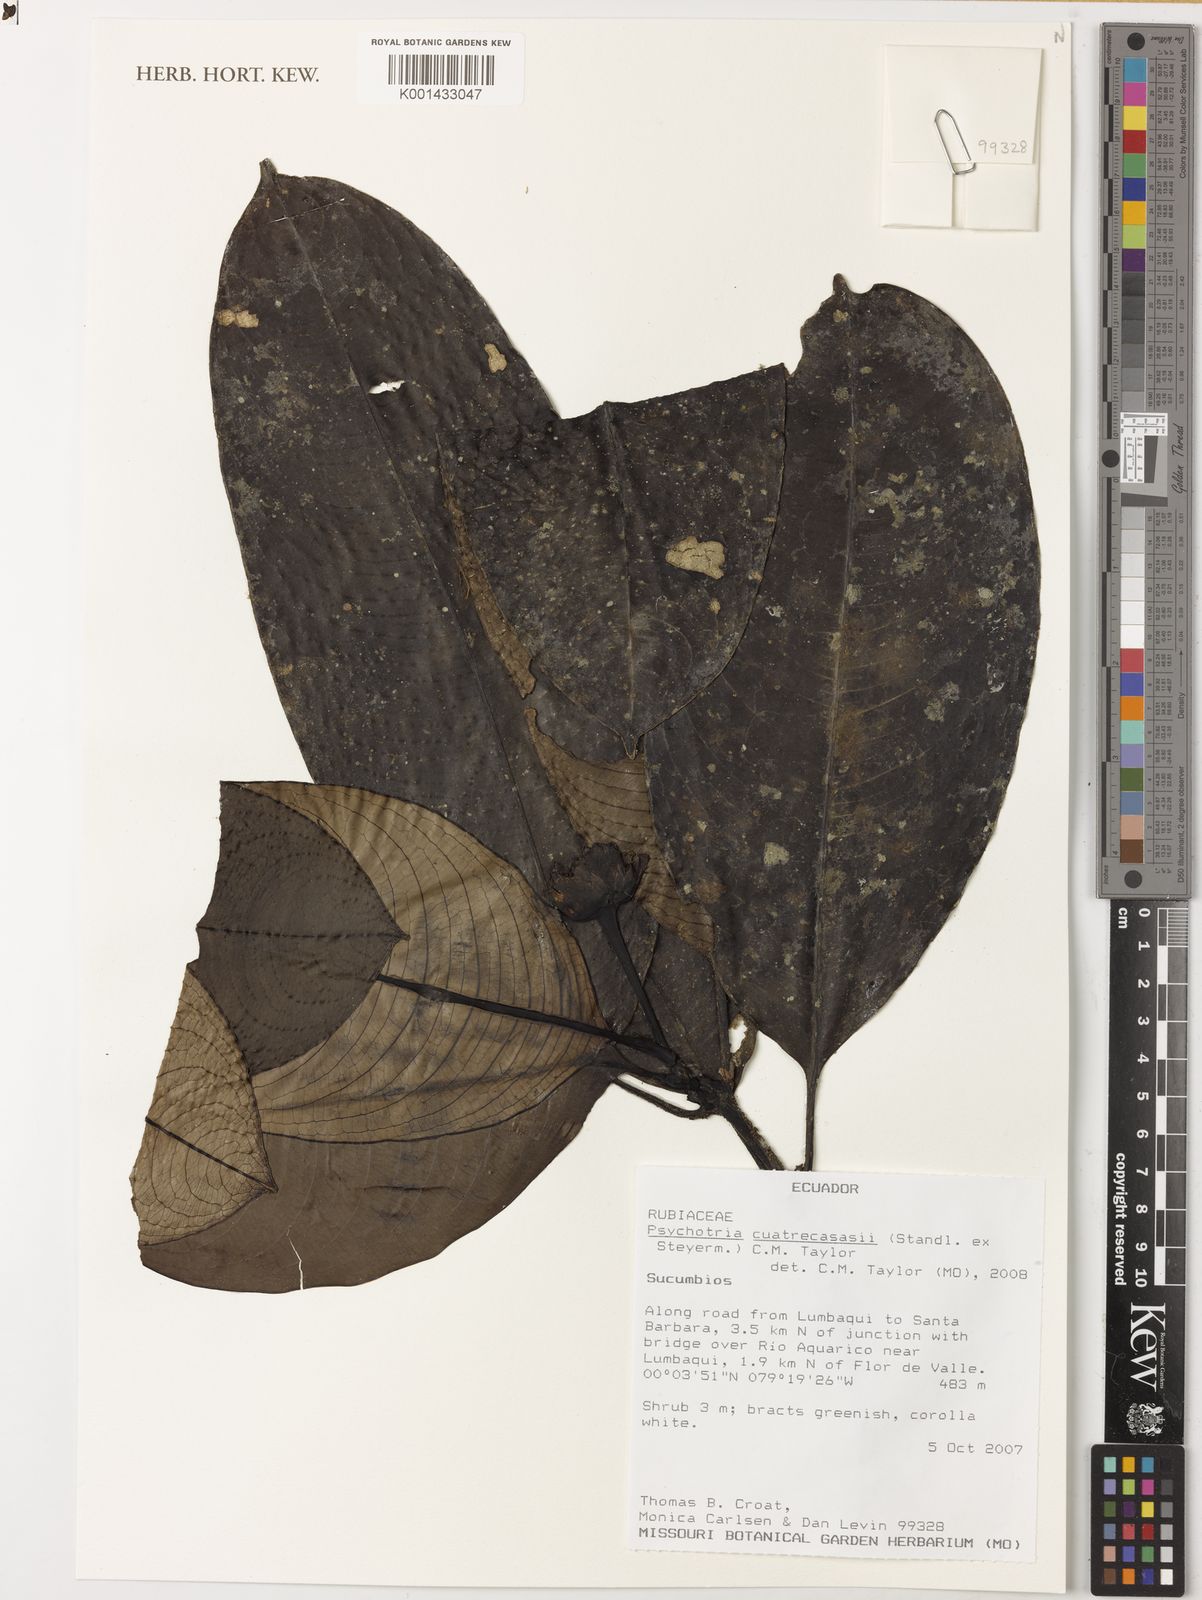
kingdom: Plantae
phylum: Tracheophyta
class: Magnoliopsida
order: Gentianales
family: Rubiaceae
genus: Palicourea
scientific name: Palicourea arenosa
